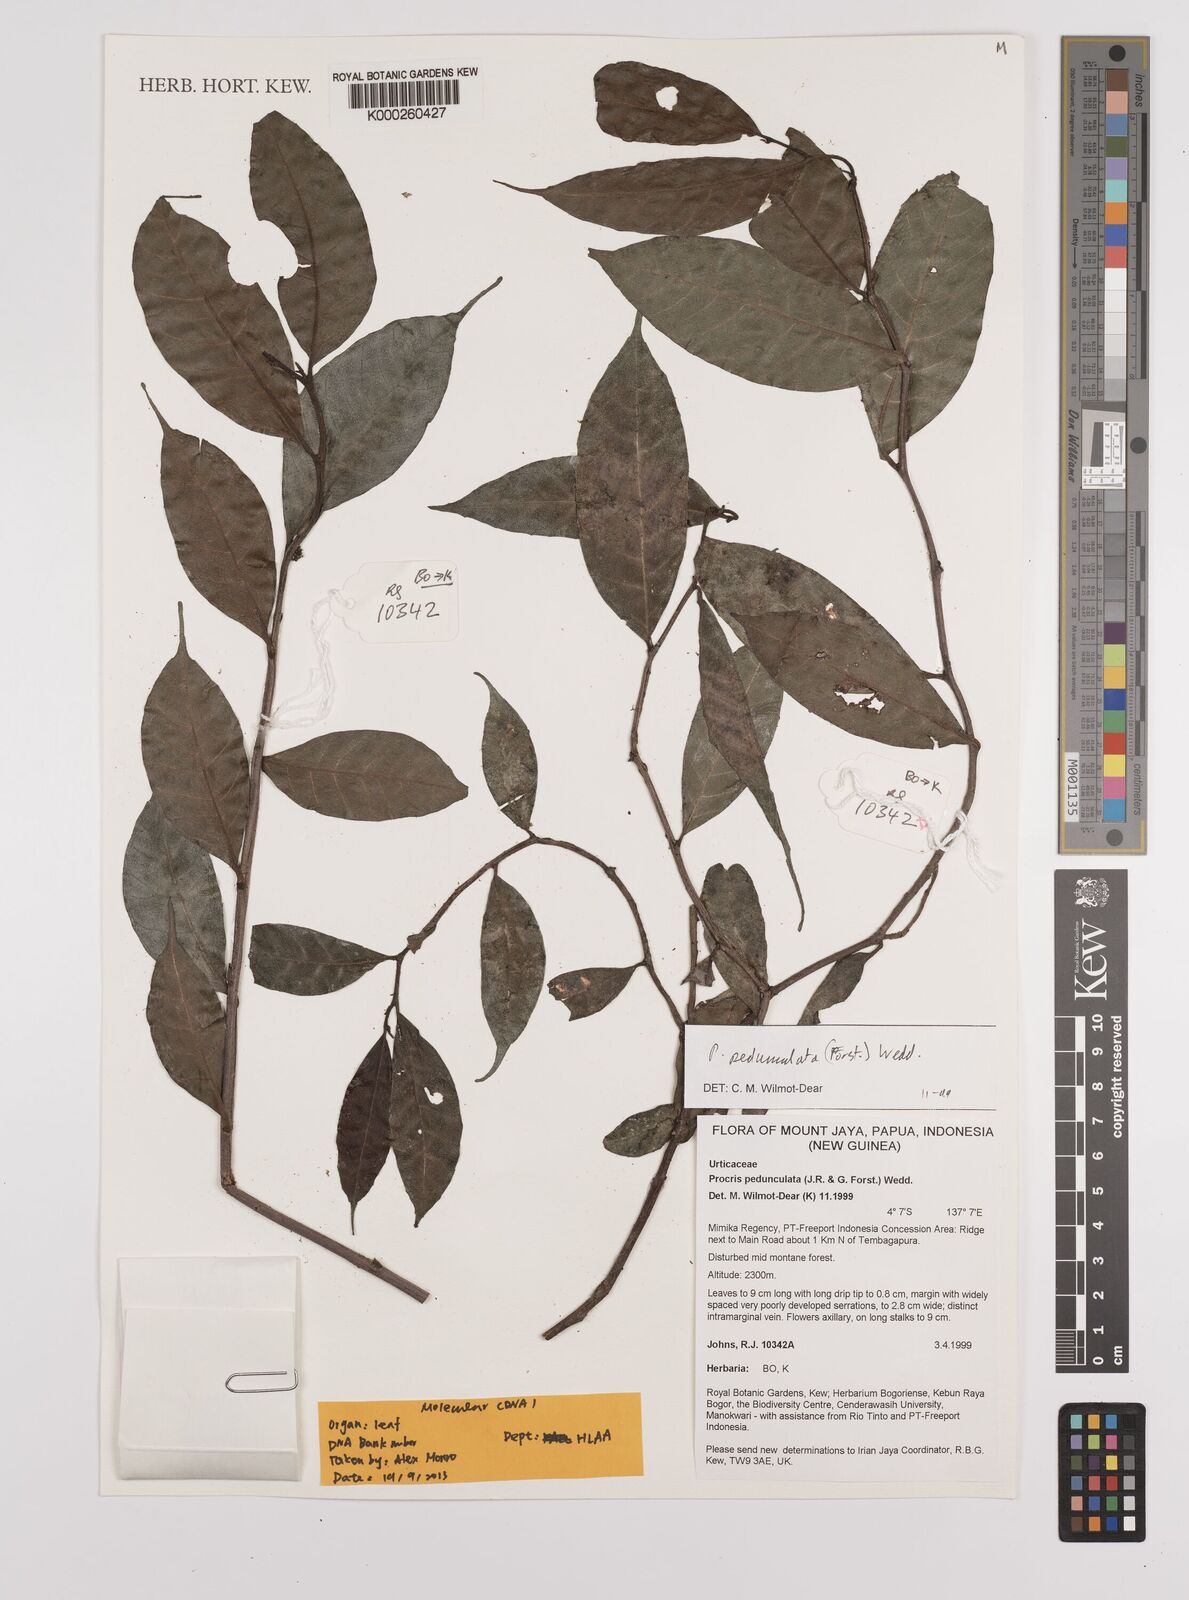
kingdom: Plantae
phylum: Tracheophyta
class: Magnoliopsida
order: Rosales
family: Urticaceae
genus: Procris
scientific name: Procris pedunculata
